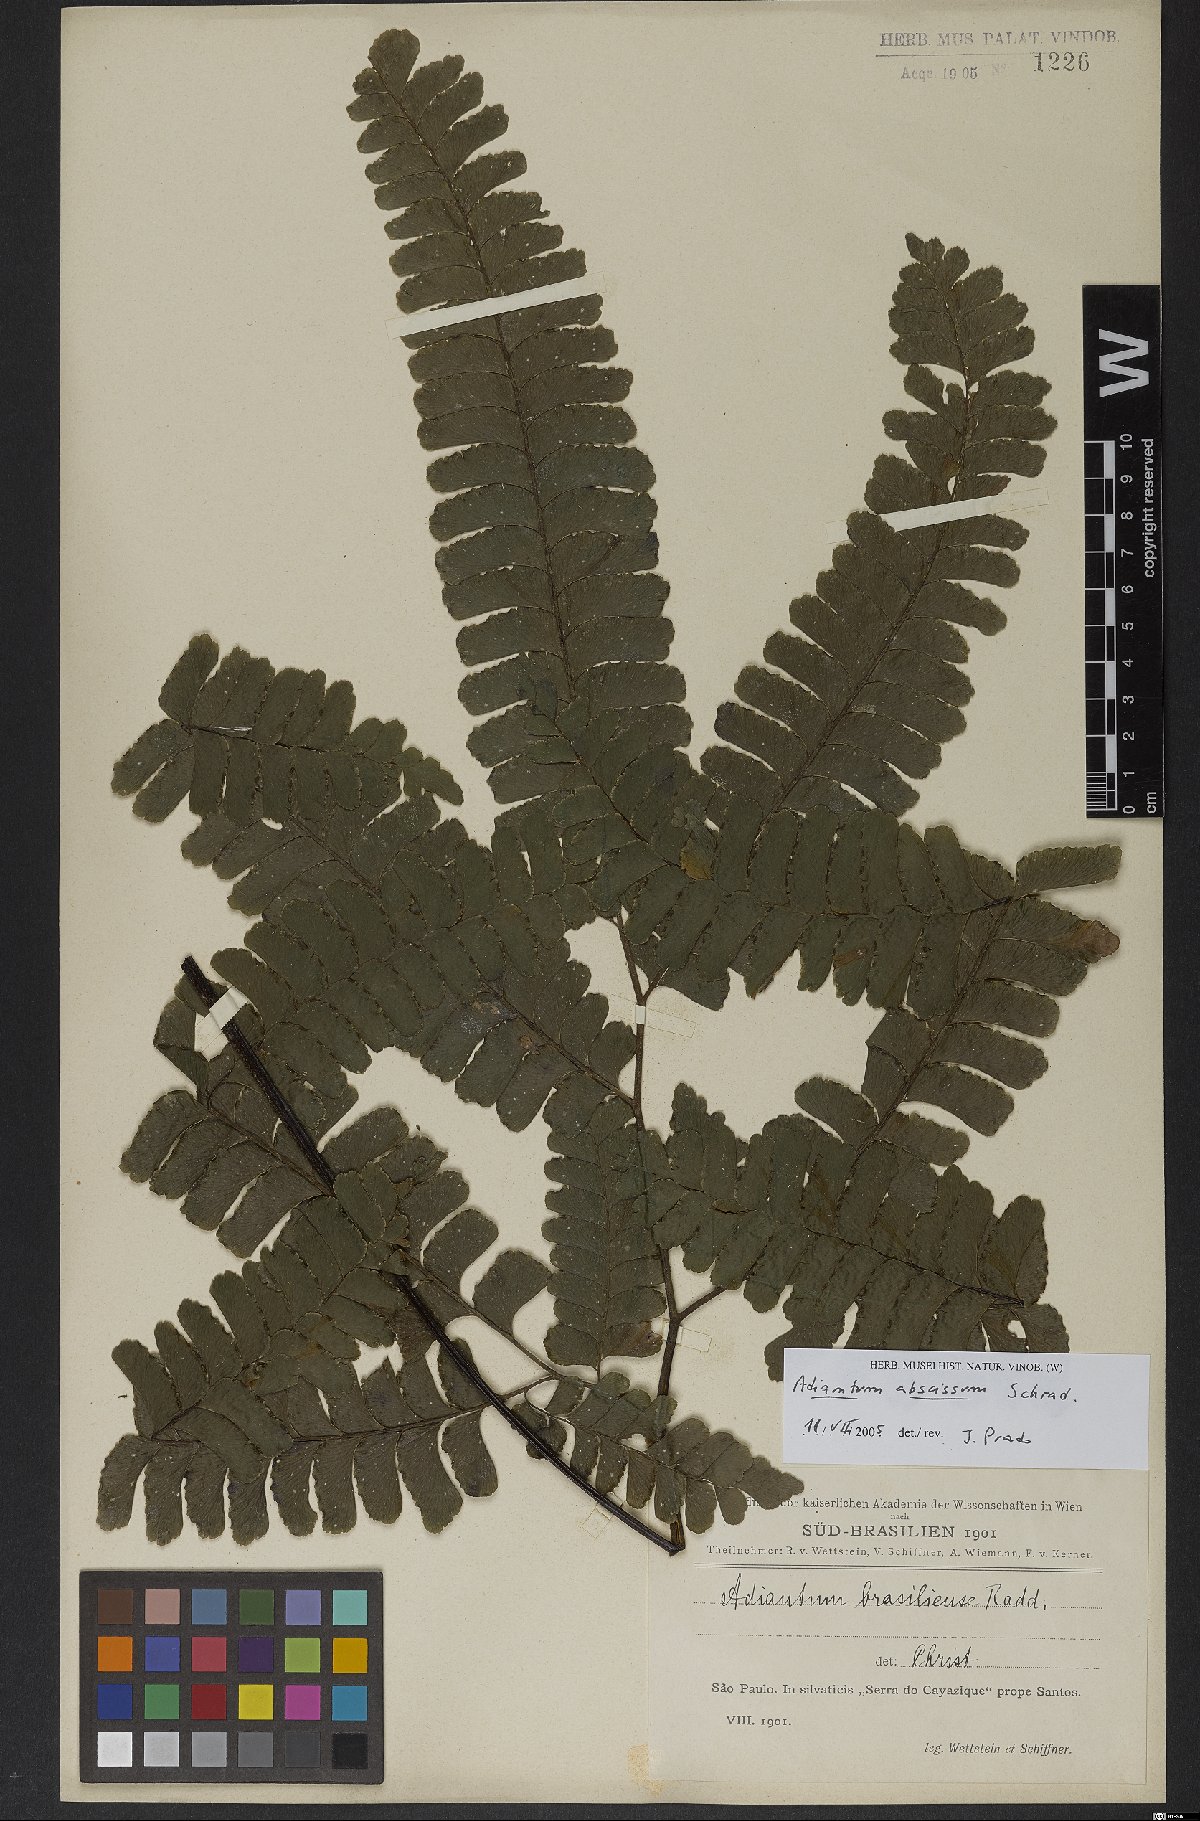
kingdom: Plantae
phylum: Tracheophyta
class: Polypodiopsida
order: Polypodiales
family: Pteridaceae
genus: Adiantum
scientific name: Adiantum abscissum
